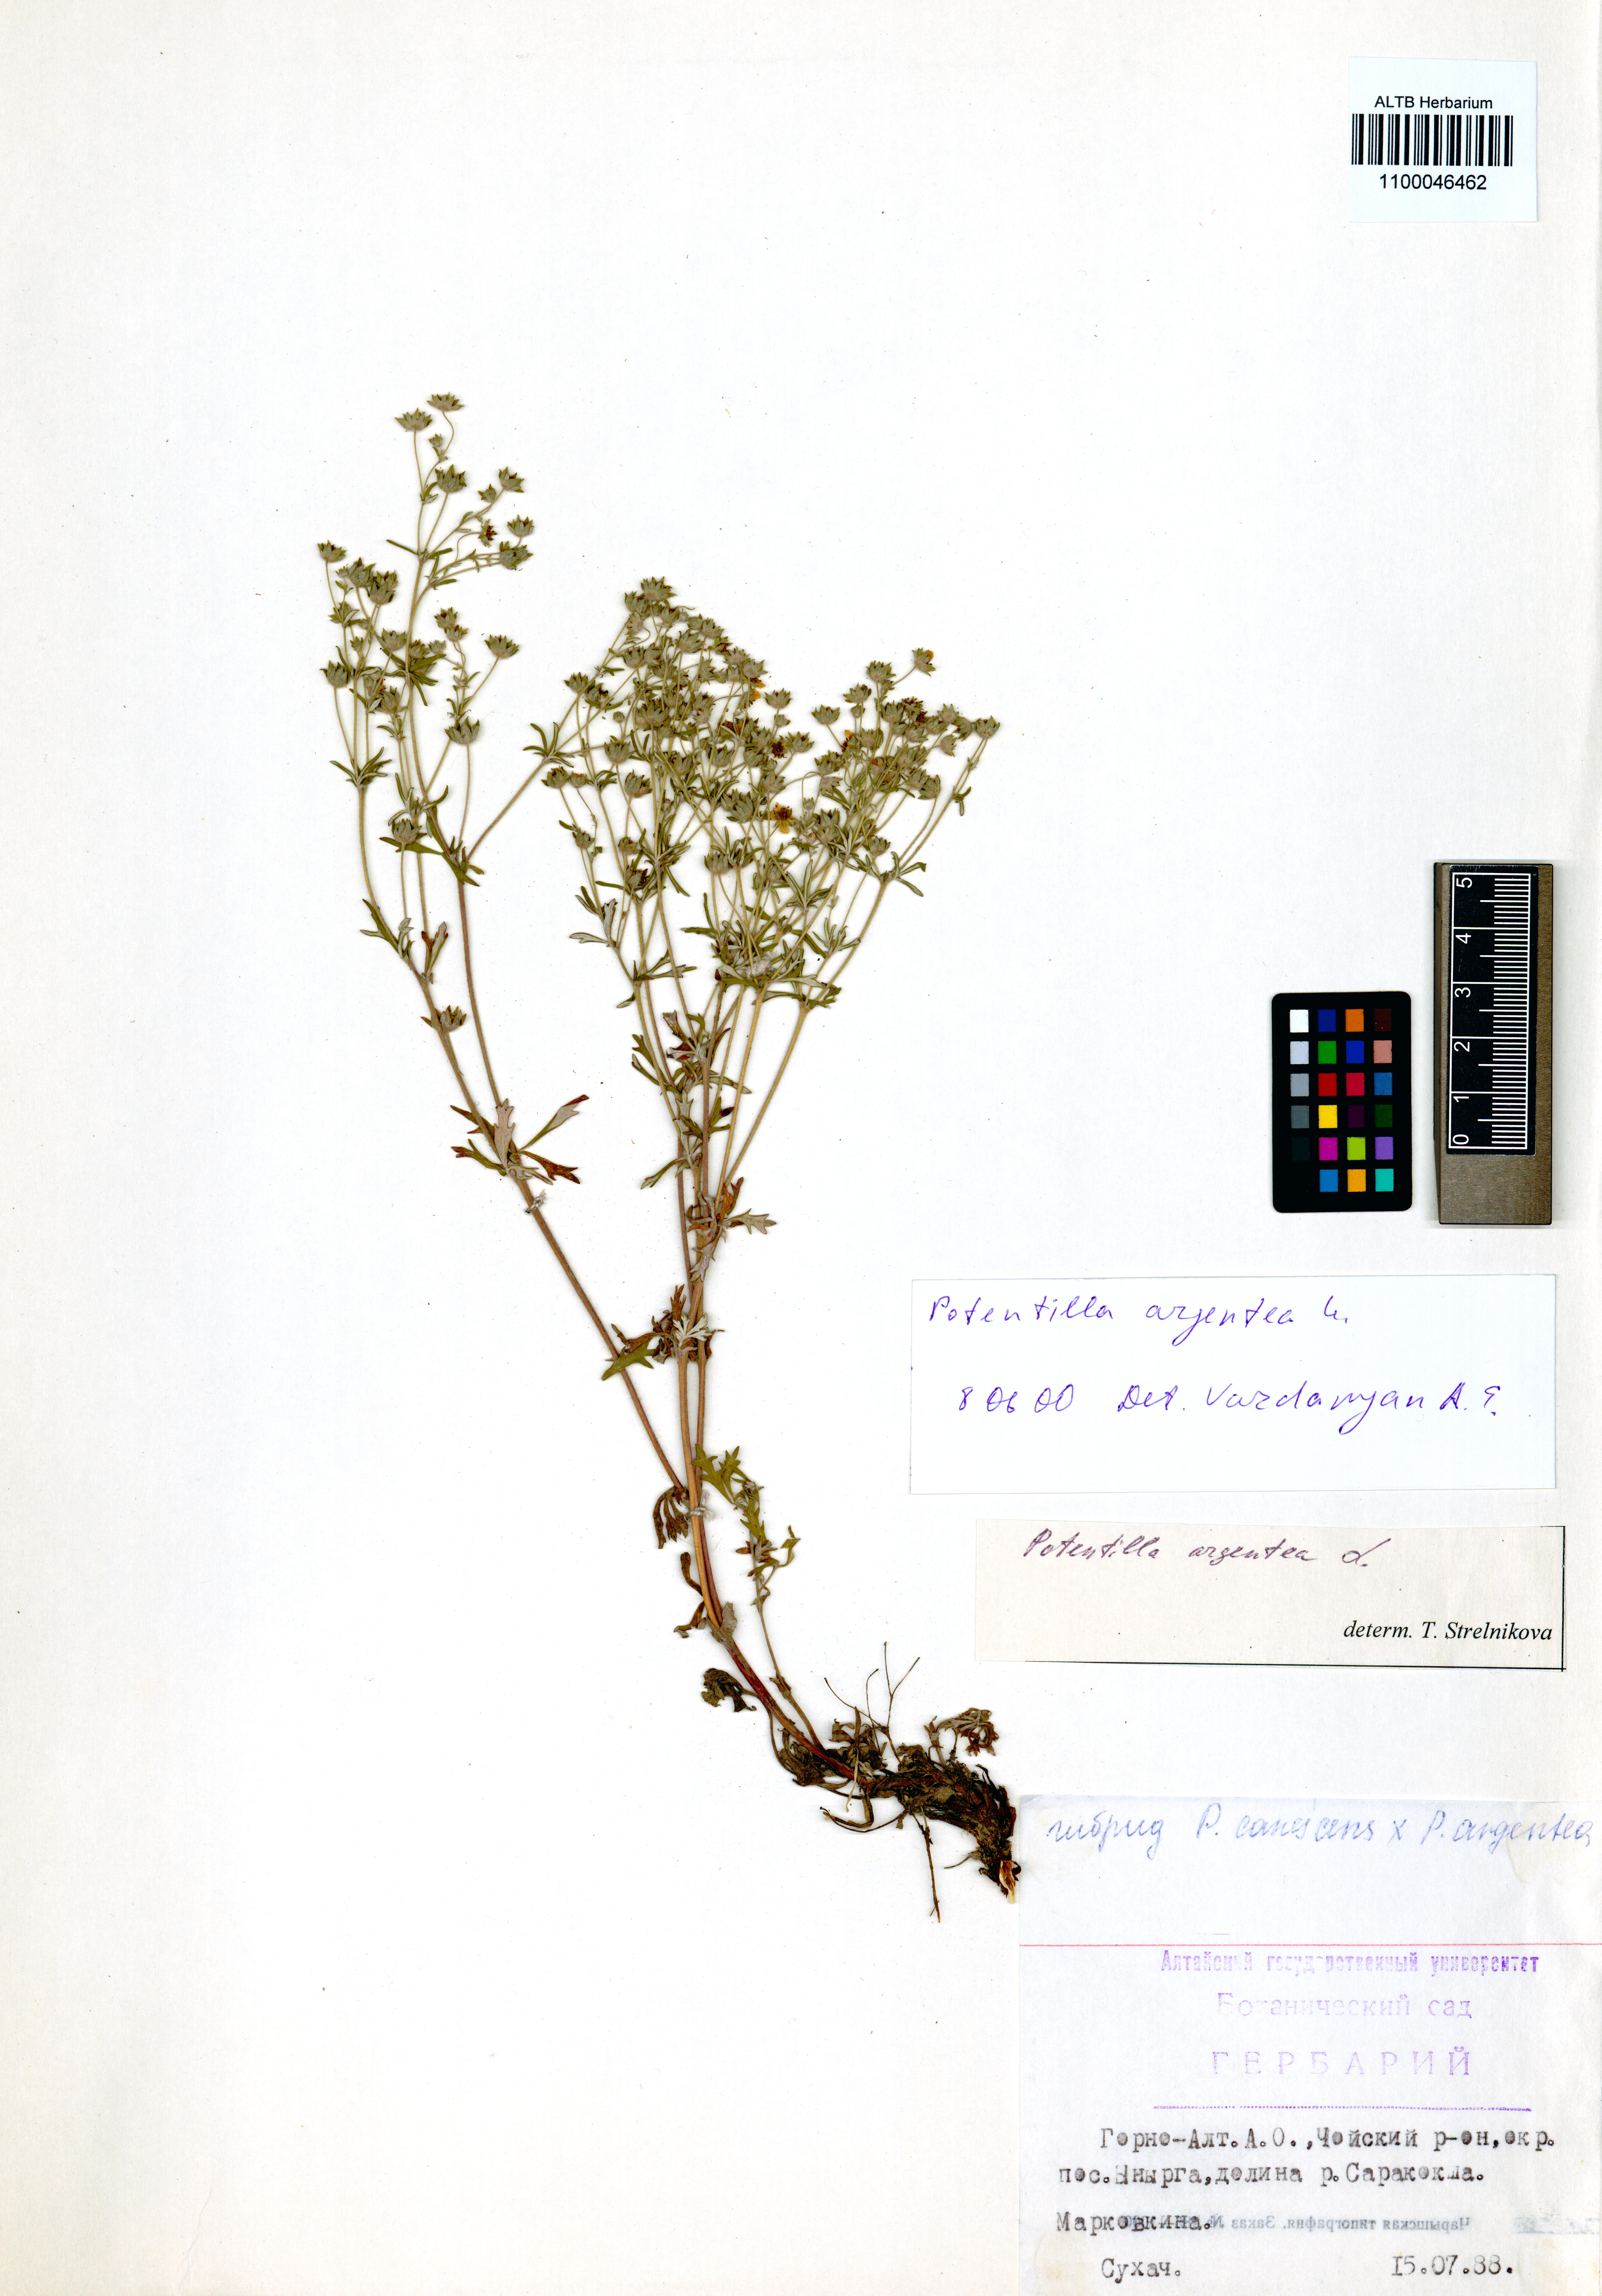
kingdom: Plantae
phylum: Tracheophyta
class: Magnoliopsida
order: Rosales
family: Rosaceae
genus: Potentilla
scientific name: Potentilla argentea
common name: Hoary cinquefoil
